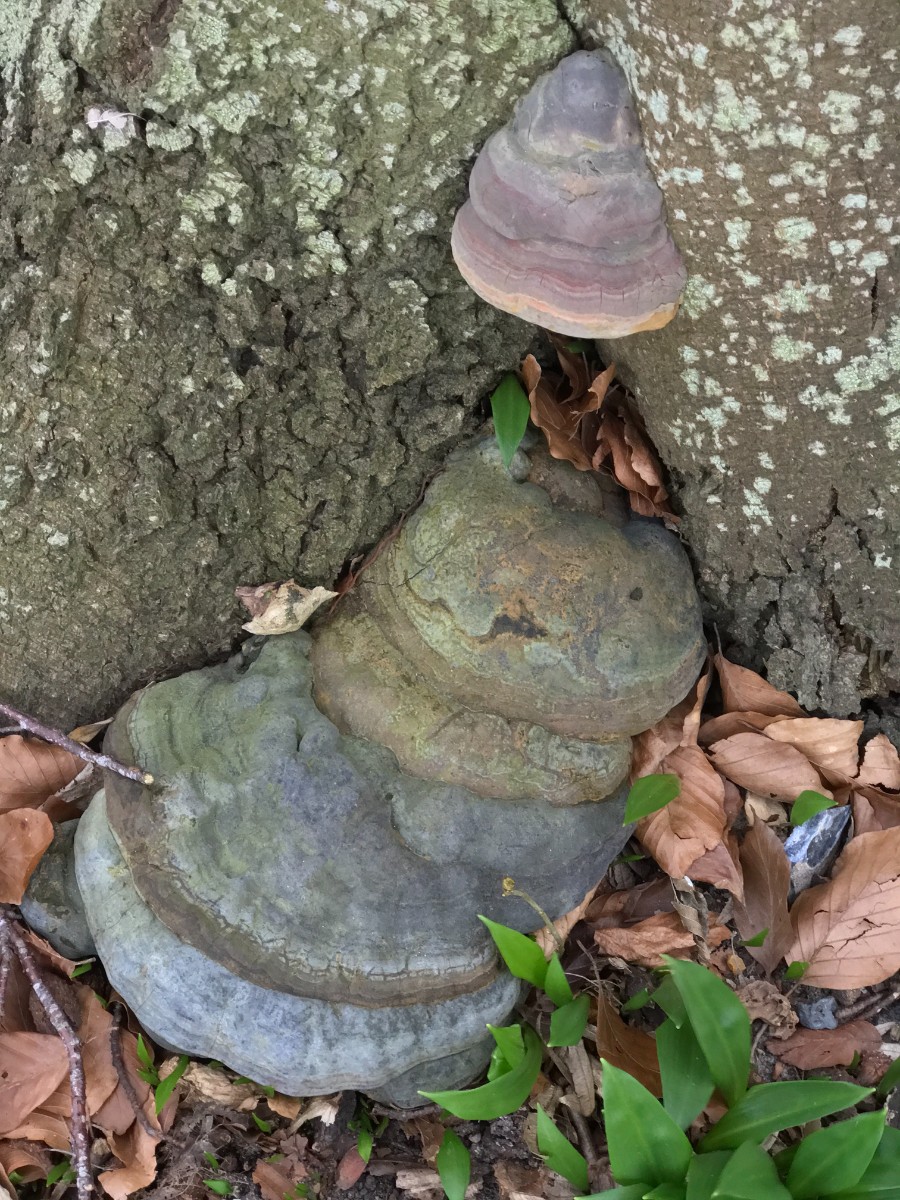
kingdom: Fungi
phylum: Basidiomycota
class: Agaricomycetes
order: Polyporales
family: Polyporaceae
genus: Ganoderma
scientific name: Ganoderma pfeifferi
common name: kobberrød lakporesvamp
